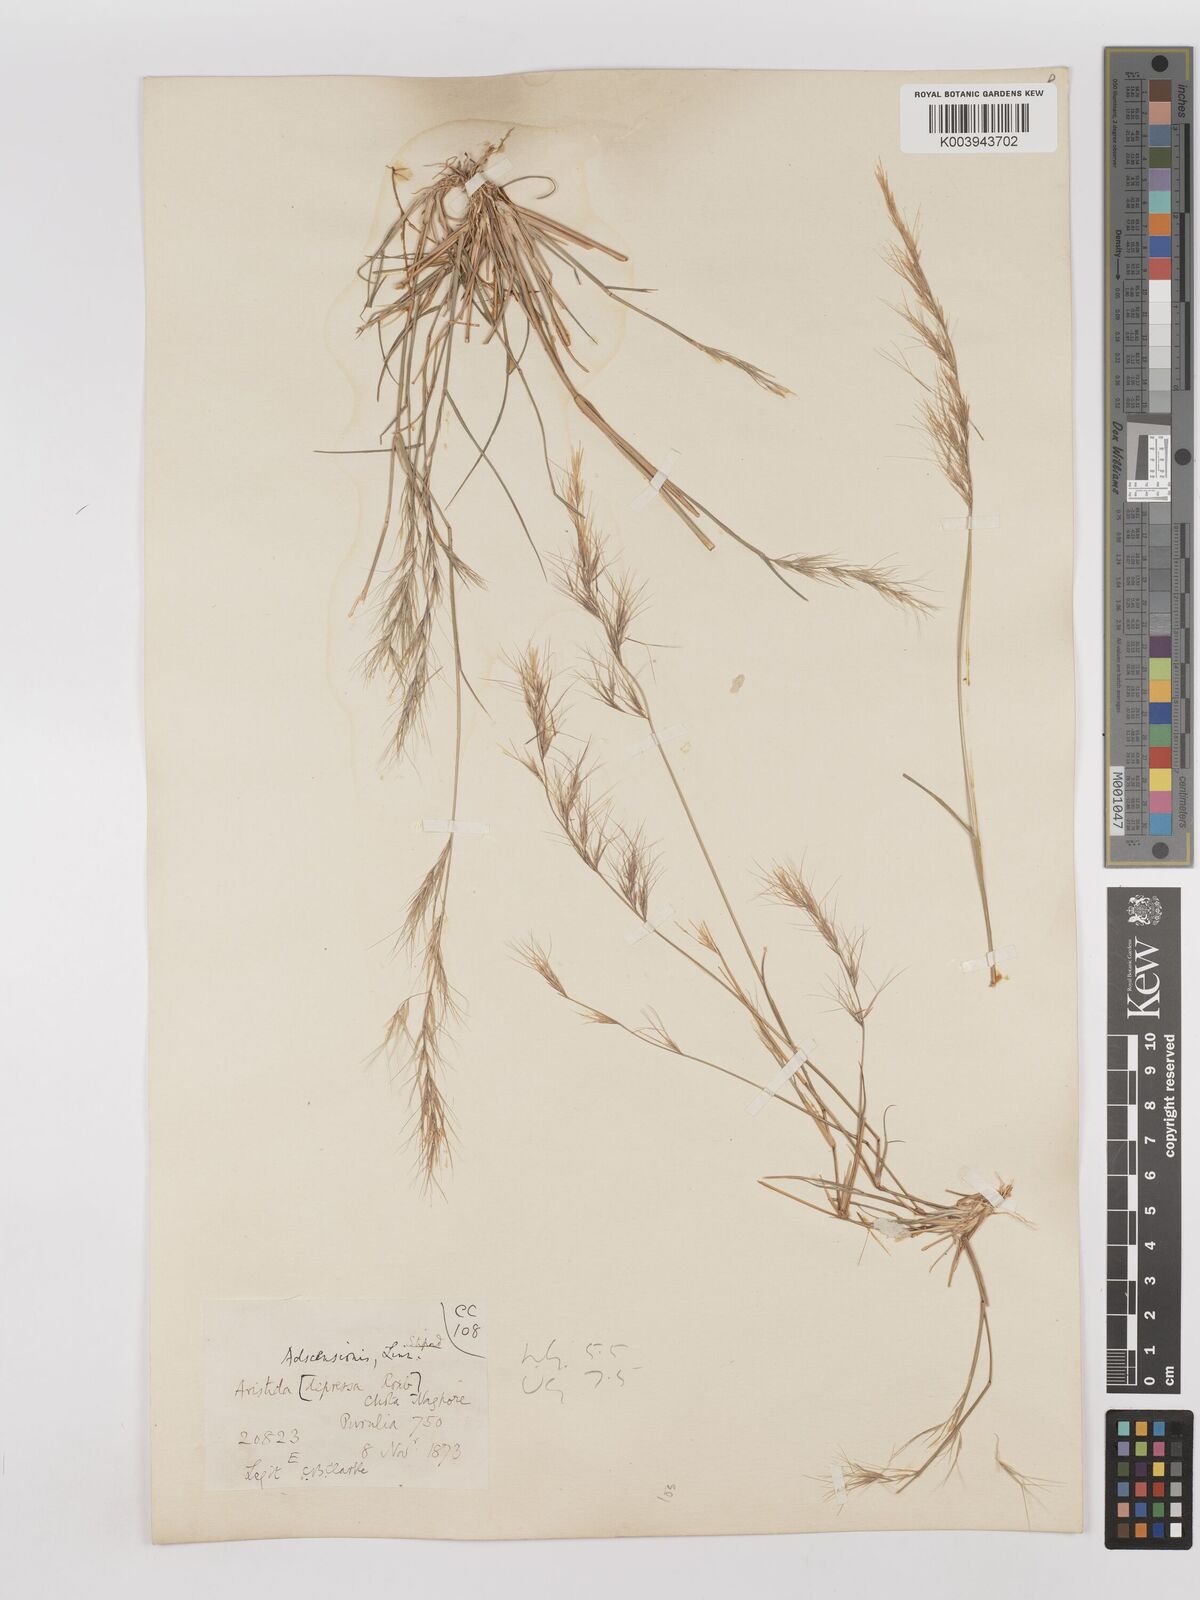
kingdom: Plantae
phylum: Tracheophyta
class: Liliopsida
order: Poales
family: Poaceae
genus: Aristida
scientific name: Aristida adscensionis
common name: Sixweeks threeawn
